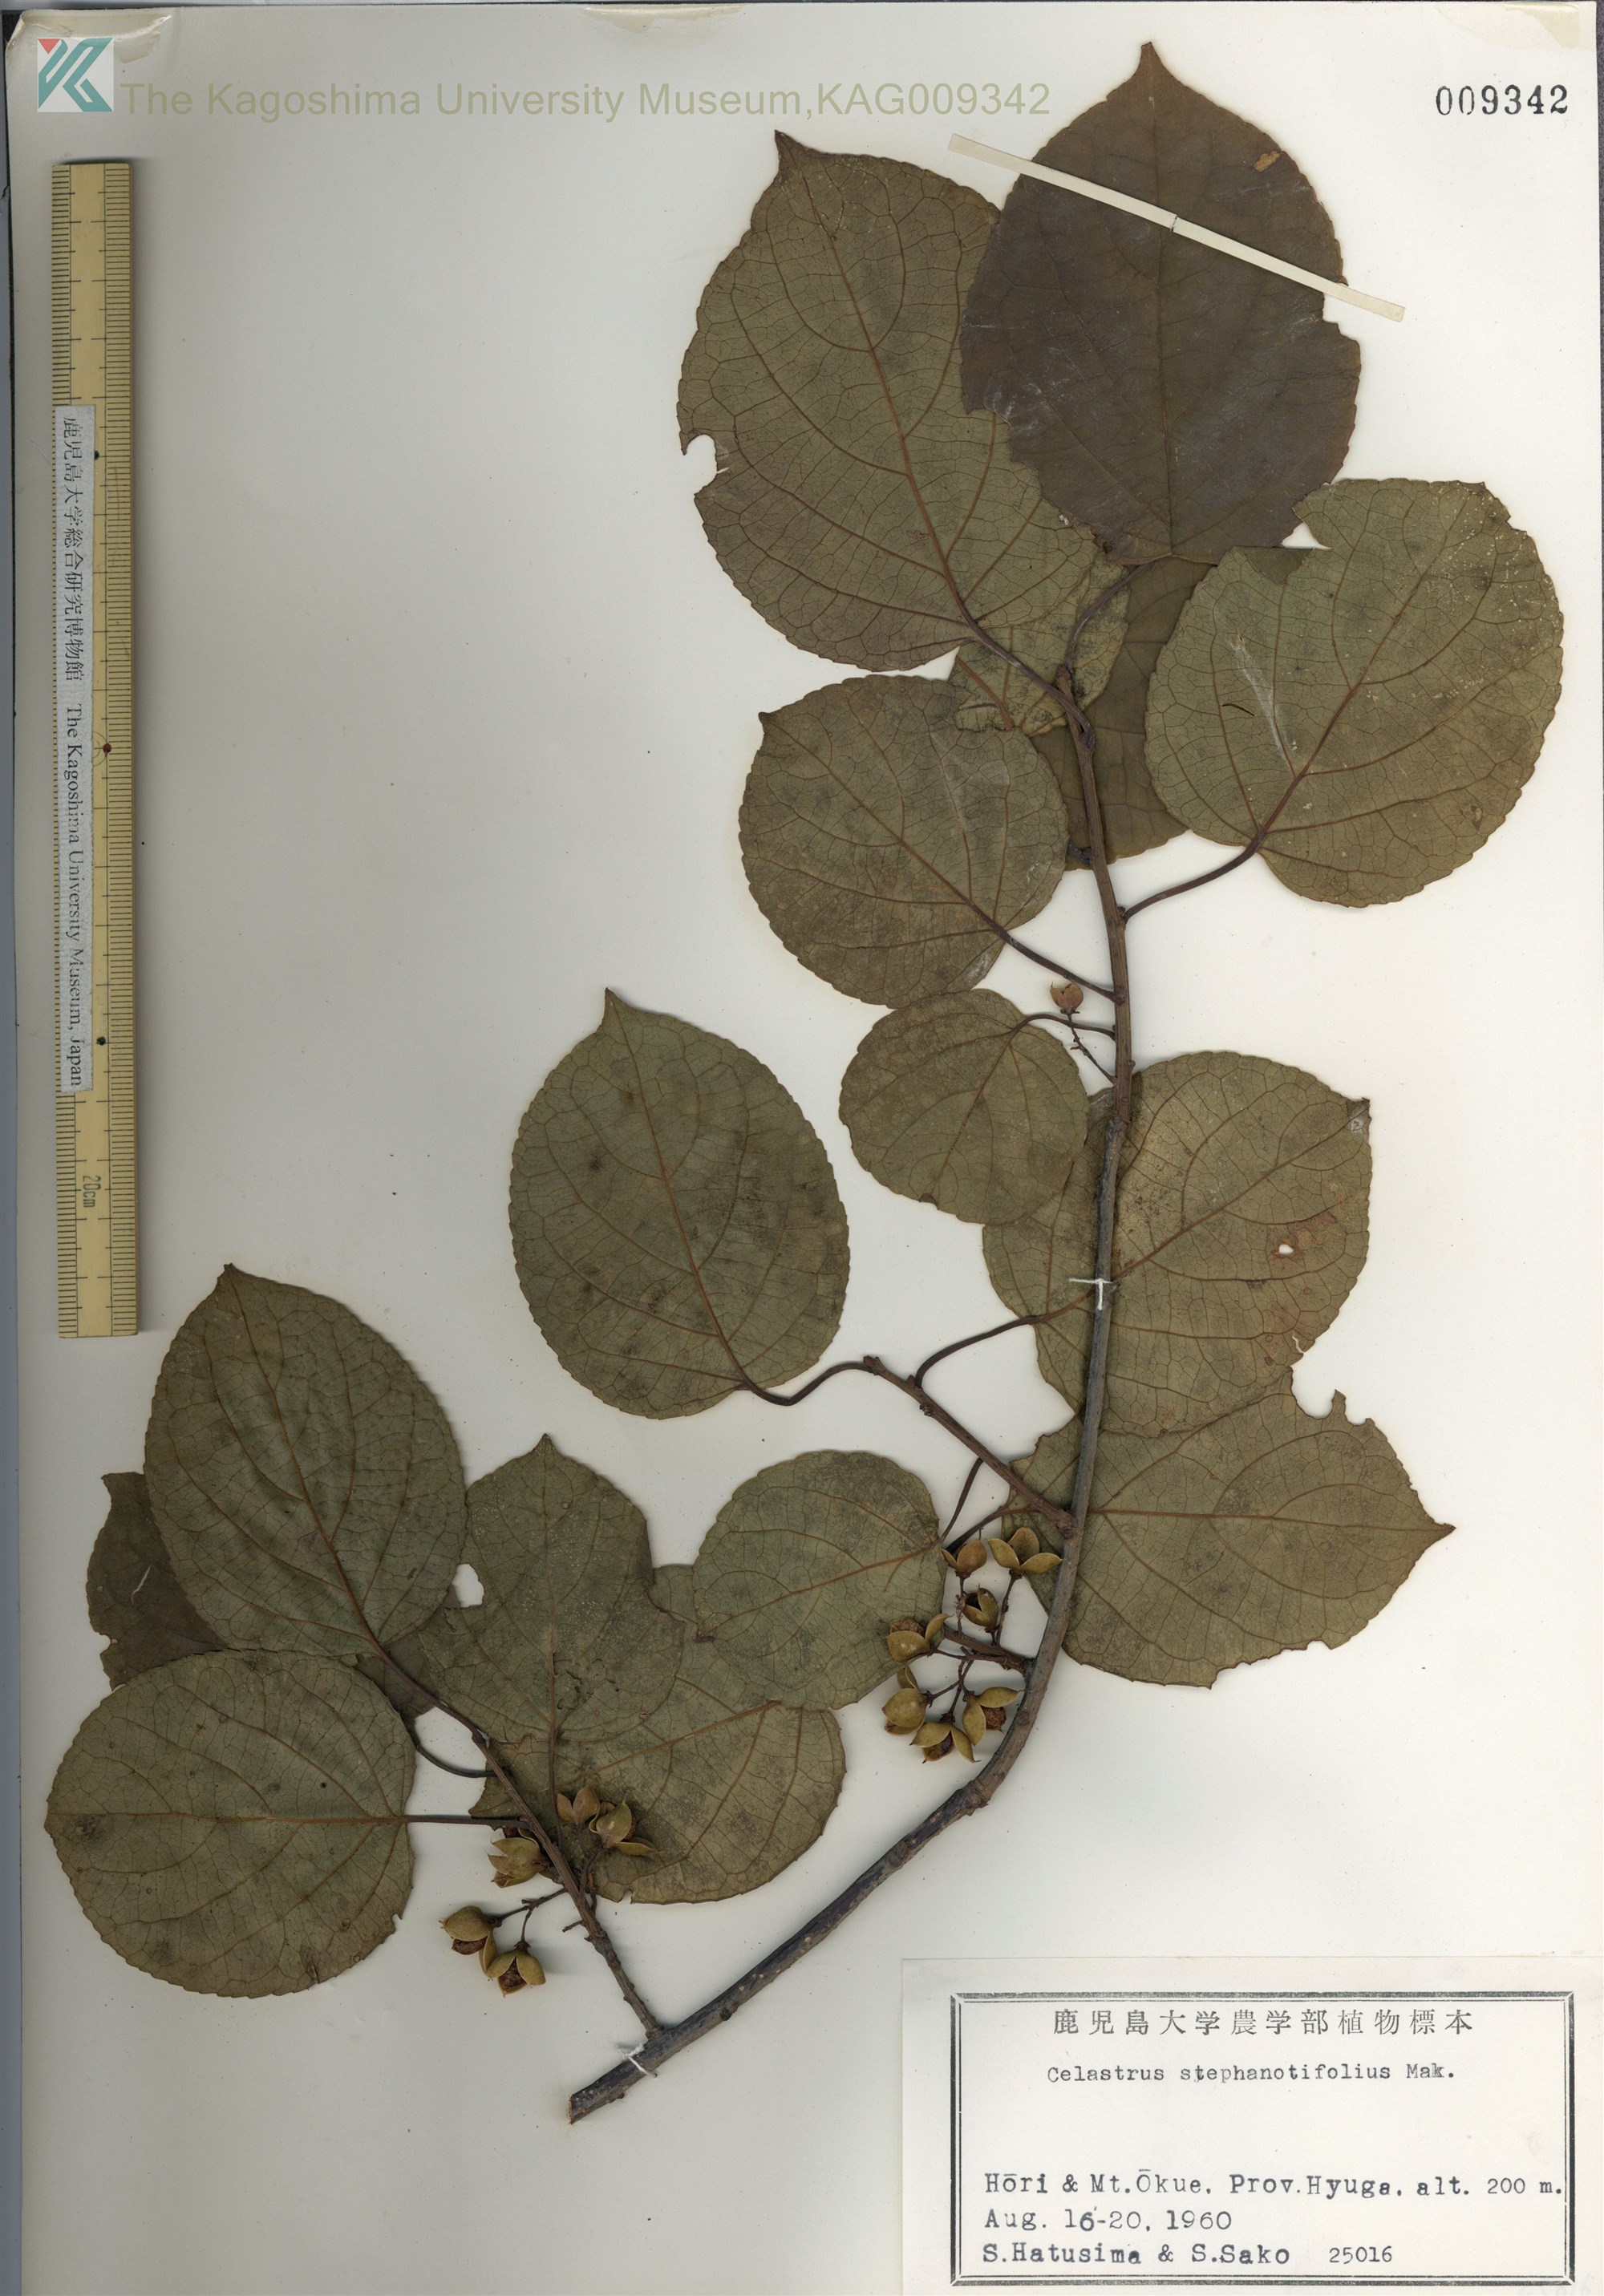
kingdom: Plantae
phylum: Tracheophyta
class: Magnoliopsida
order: Celastrales
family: Celastraceae
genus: Celastrus
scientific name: Celastrus stephanotifolius
